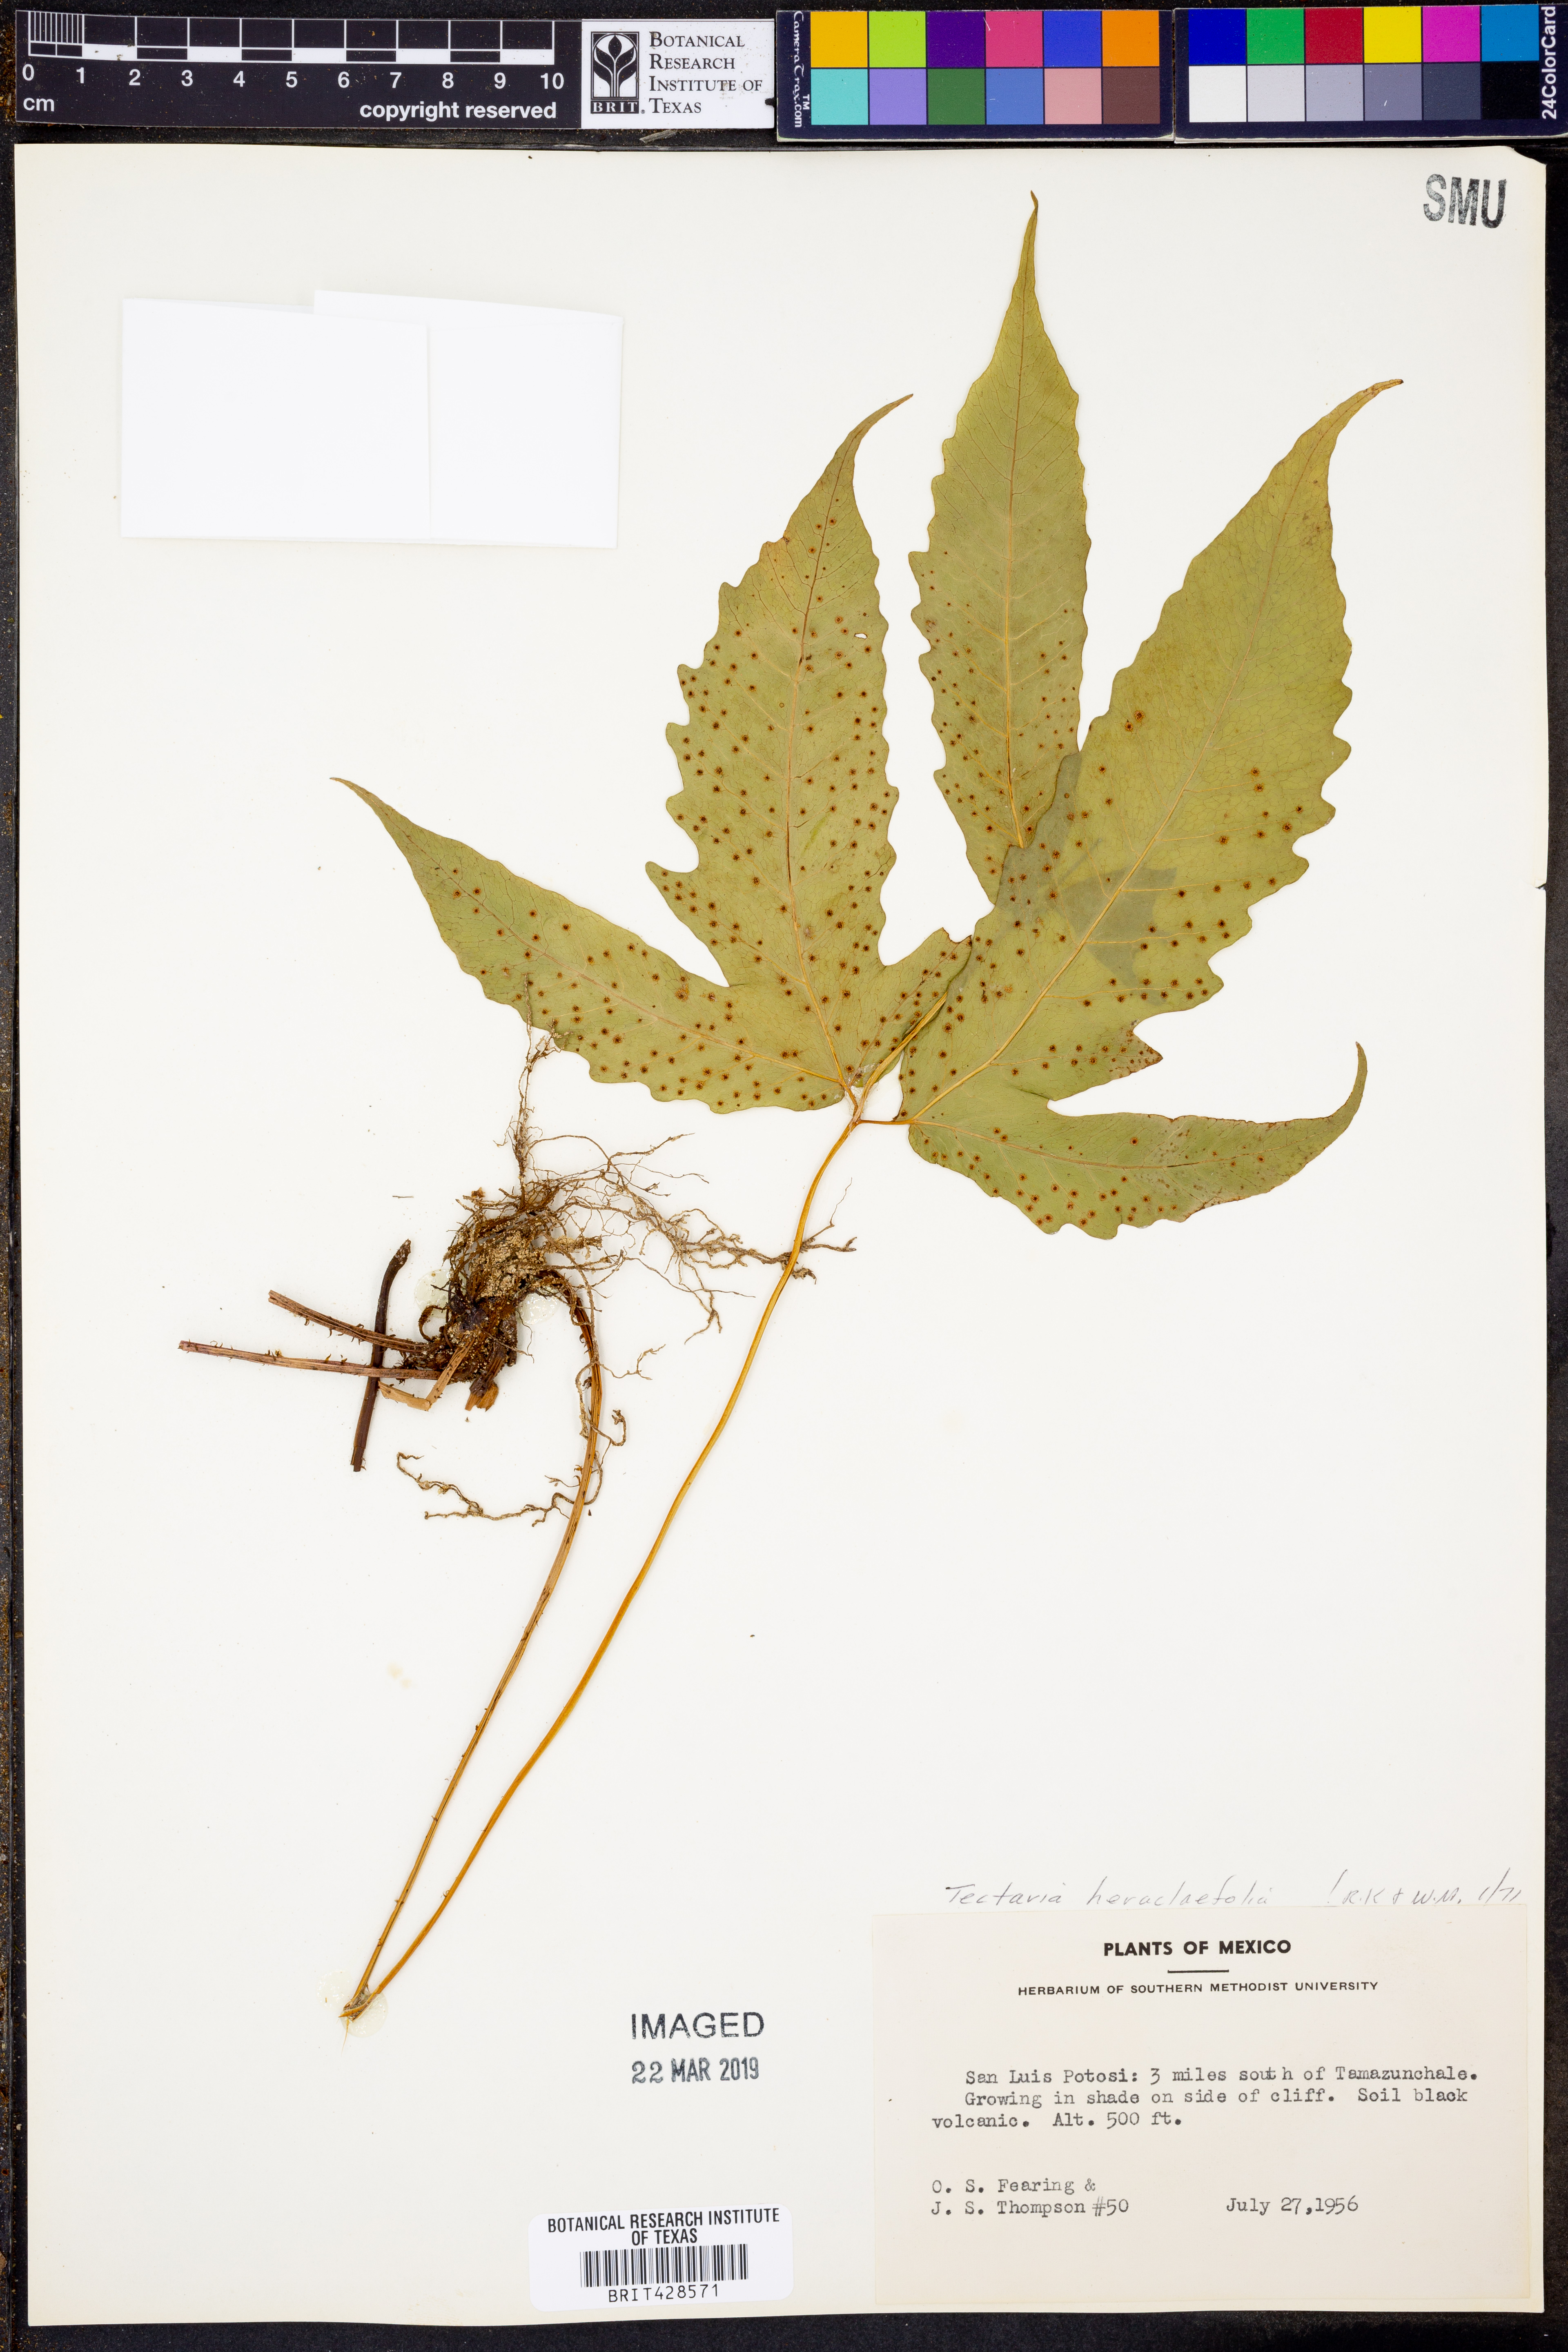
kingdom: Plantae
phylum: Tracheophyta
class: Polypodiopsida
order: Polypodiales
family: Tectariaceae
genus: Tectaria
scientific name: Tectaria heracleifolia
